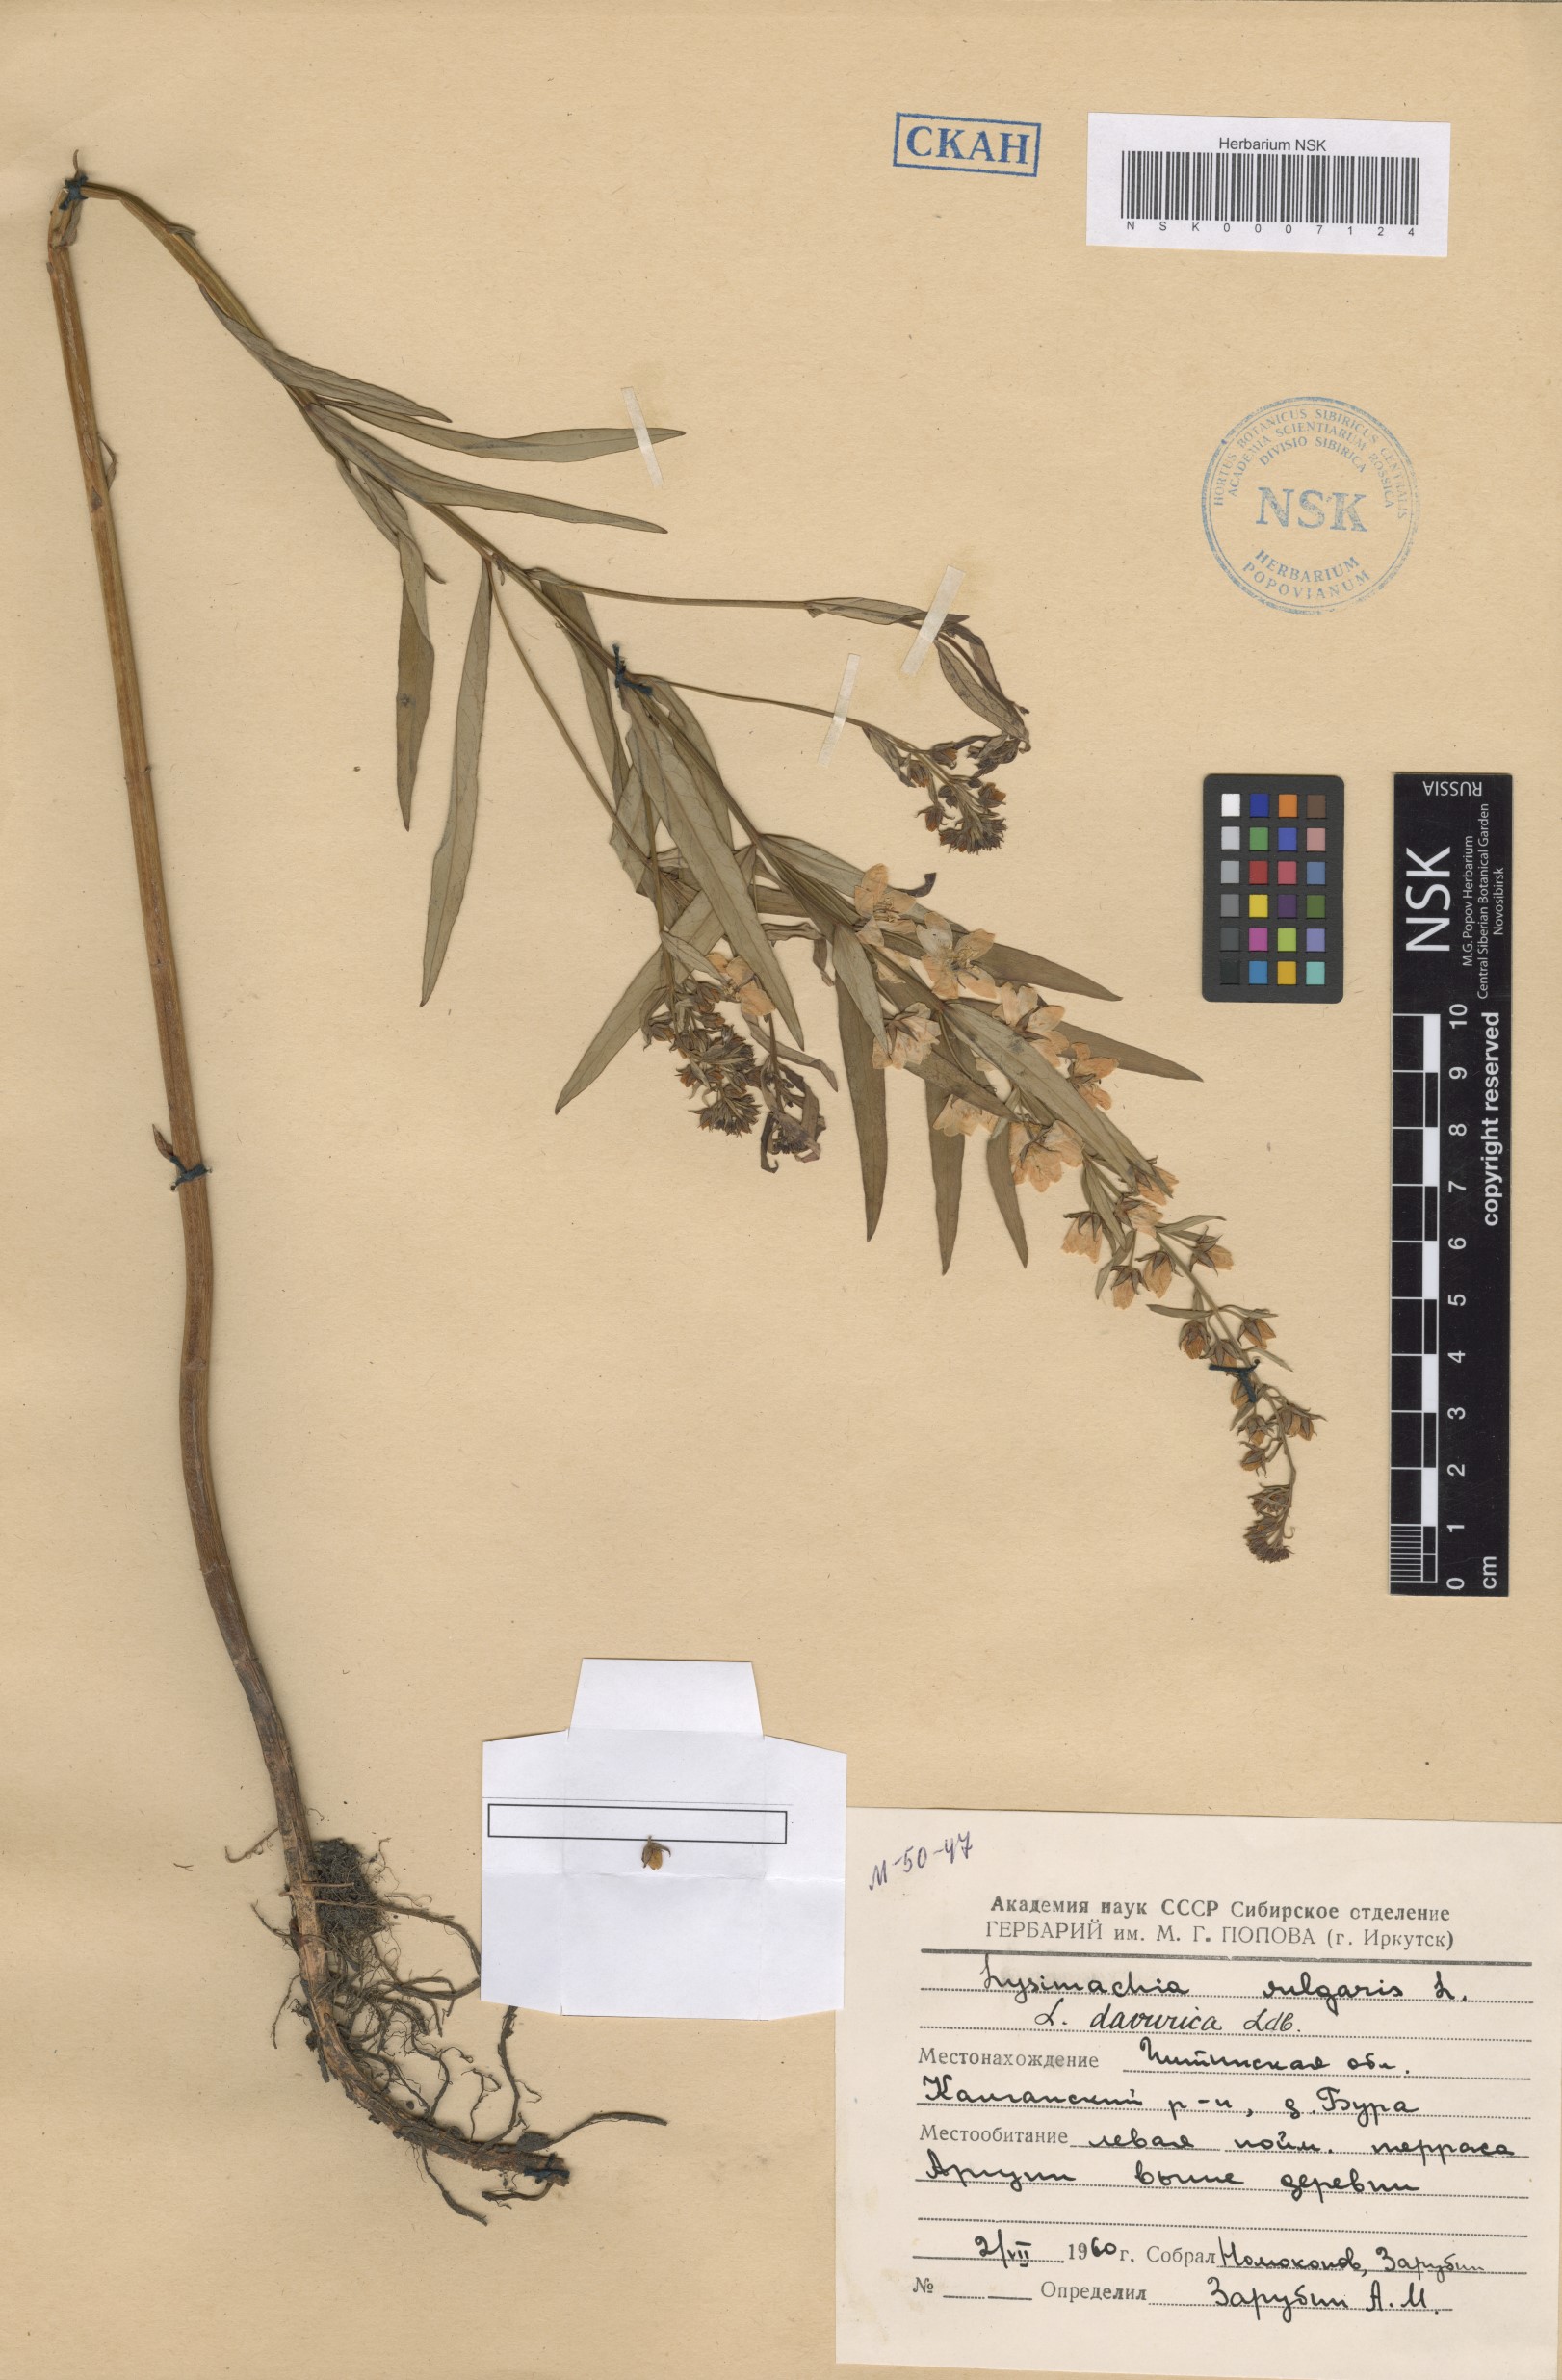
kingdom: Plantae
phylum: Tracheophyta
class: Magnoliopsida
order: Ericales
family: Primulaceae
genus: Lysimachia
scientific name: Lysimachia davurica
